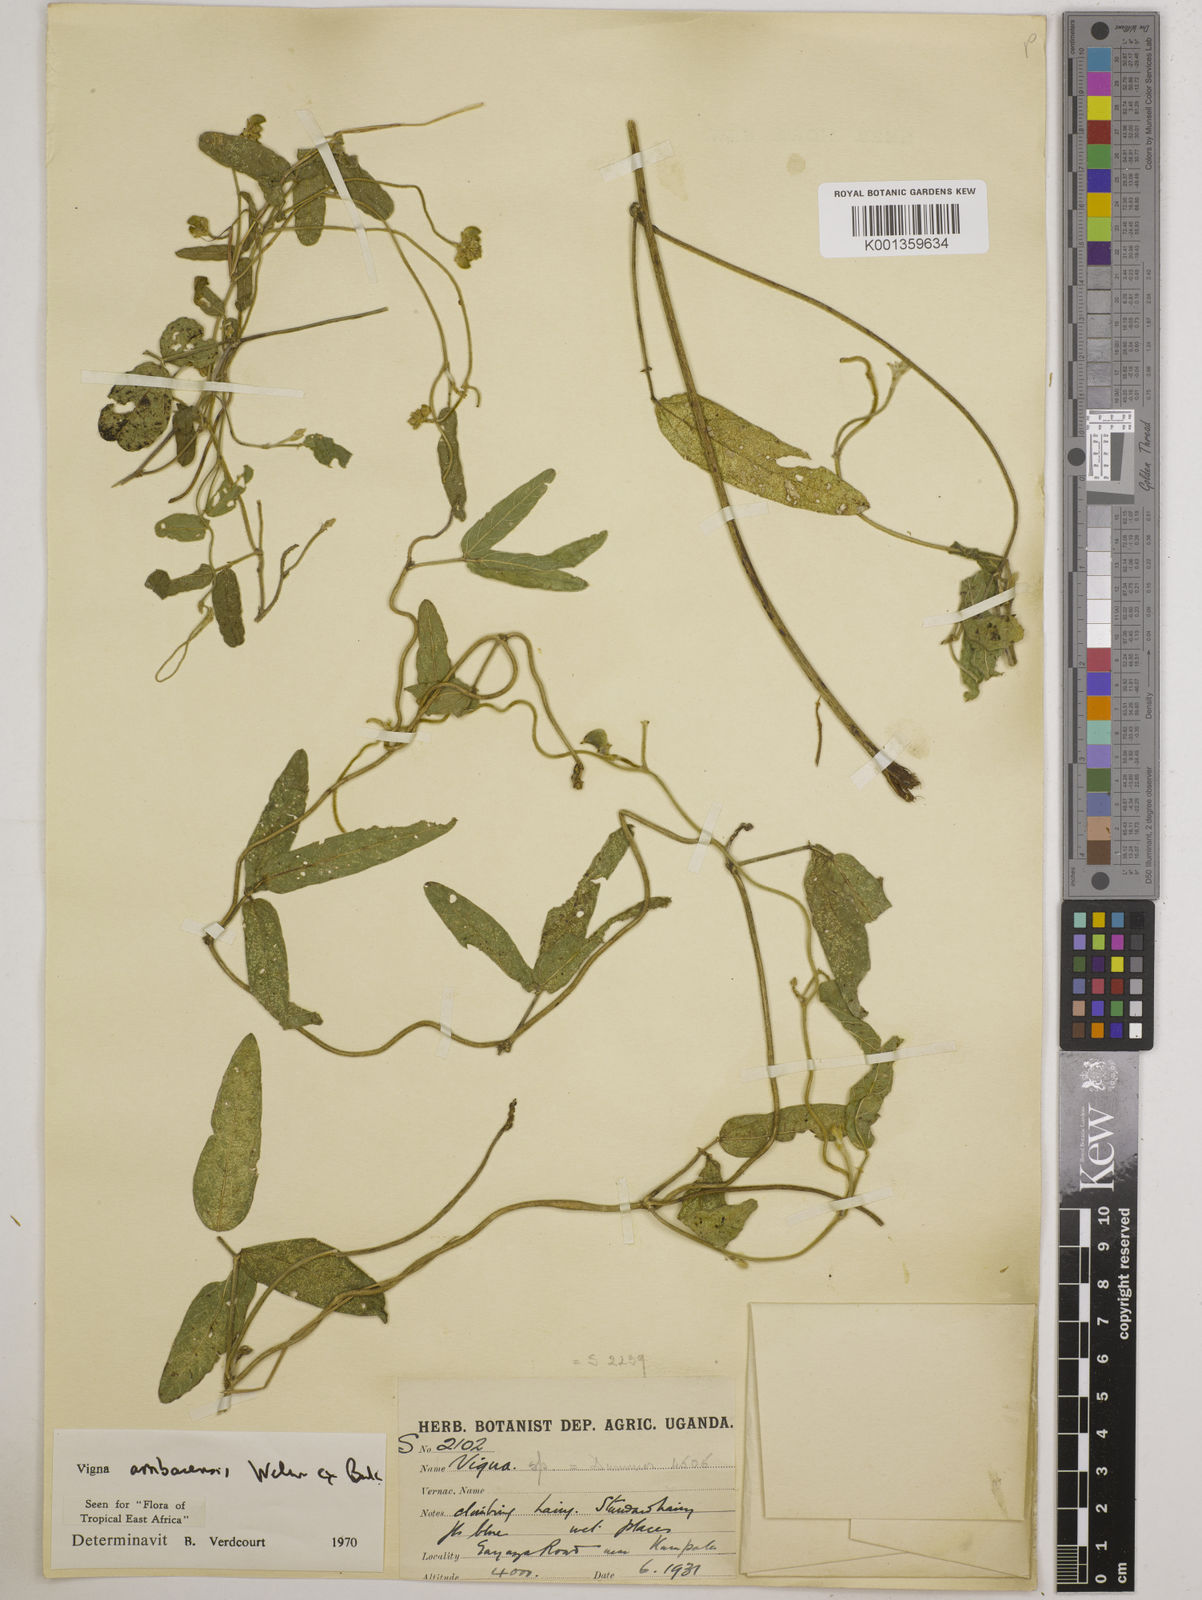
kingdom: Plantae
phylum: Tracheophyta
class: Magnoliopsida
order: Fabales
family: Fabaceae
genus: Vigna
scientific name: Vigna ambacensis
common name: Tsarkiyan zomo
